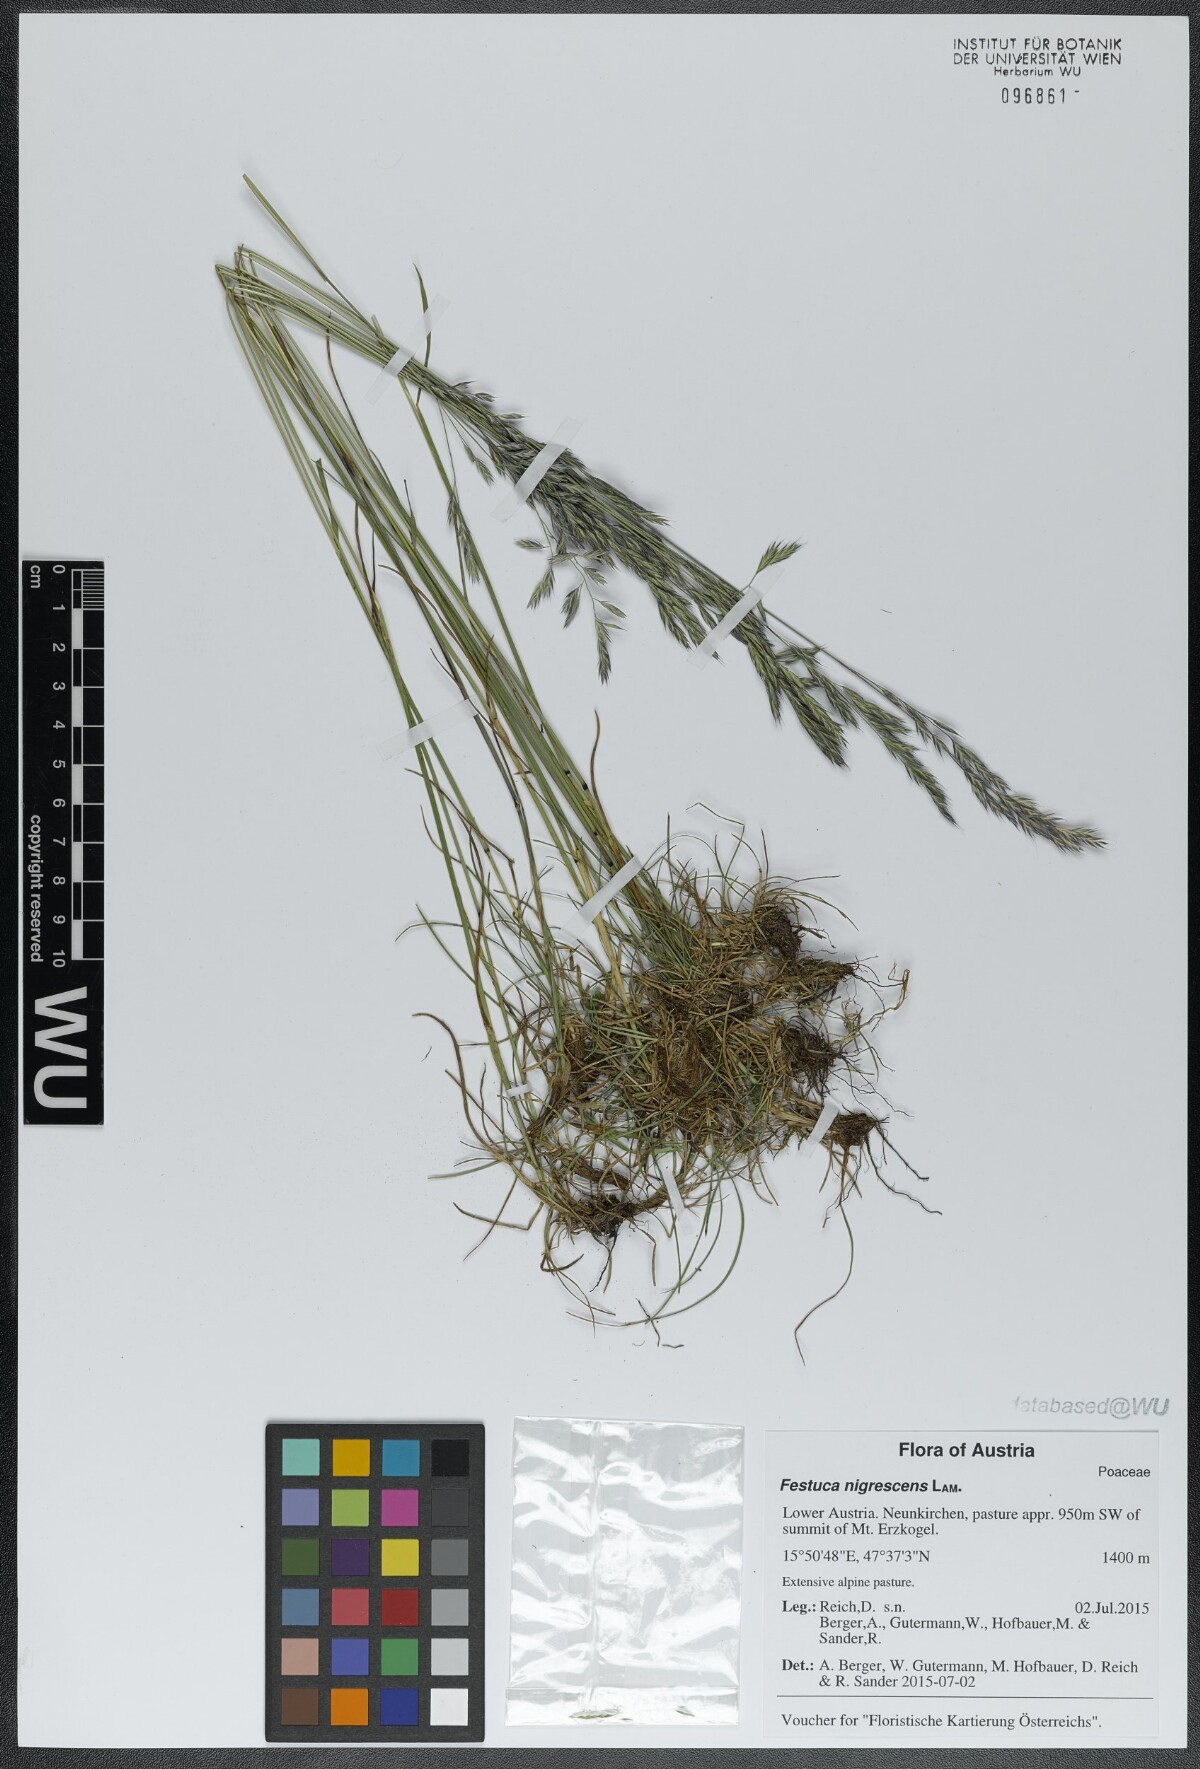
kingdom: Plantae
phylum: Tracheophyta
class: Liliopsida
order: Poales
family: Poaceae
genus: Festuca
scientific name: Festuca nigrescens
